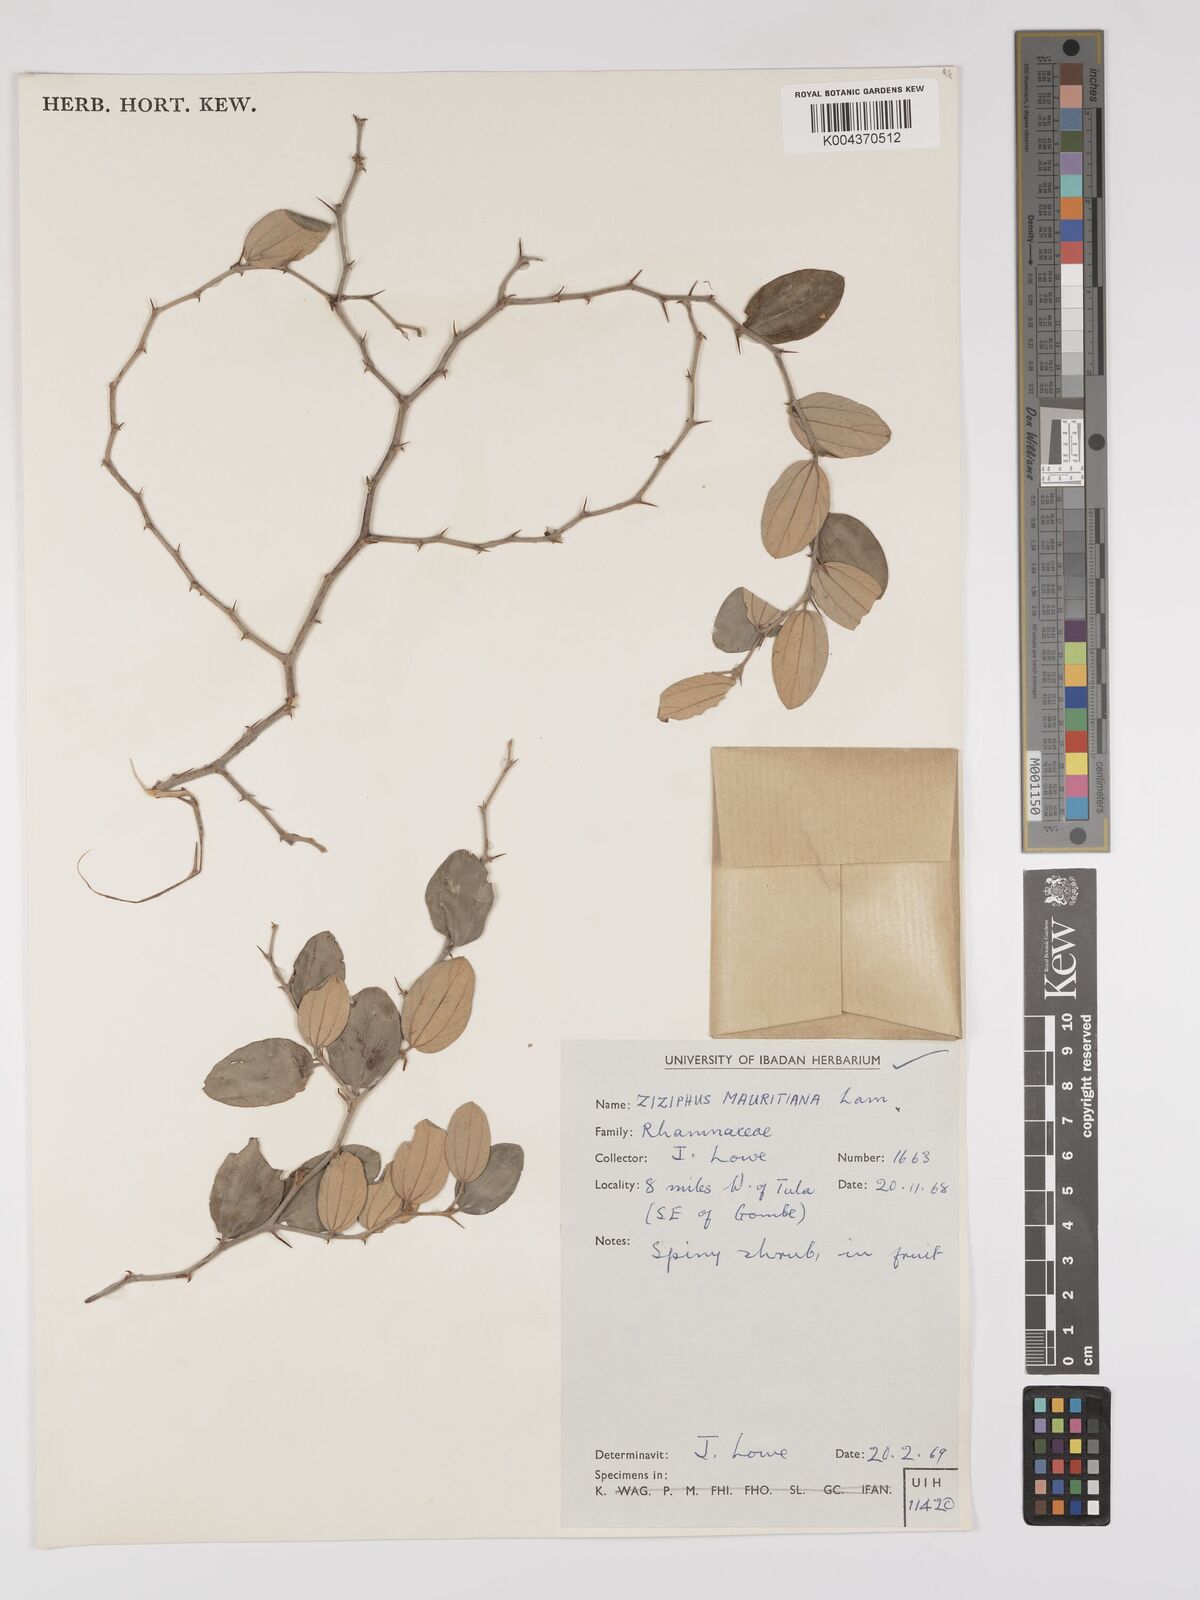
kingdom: Plantae
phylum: Tracheophyta
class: Magnoliopsida
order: Rosales
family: Rhamnaceae
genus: Ziziphus
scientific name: Ziziphus mauritiana
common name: Indian jujube
